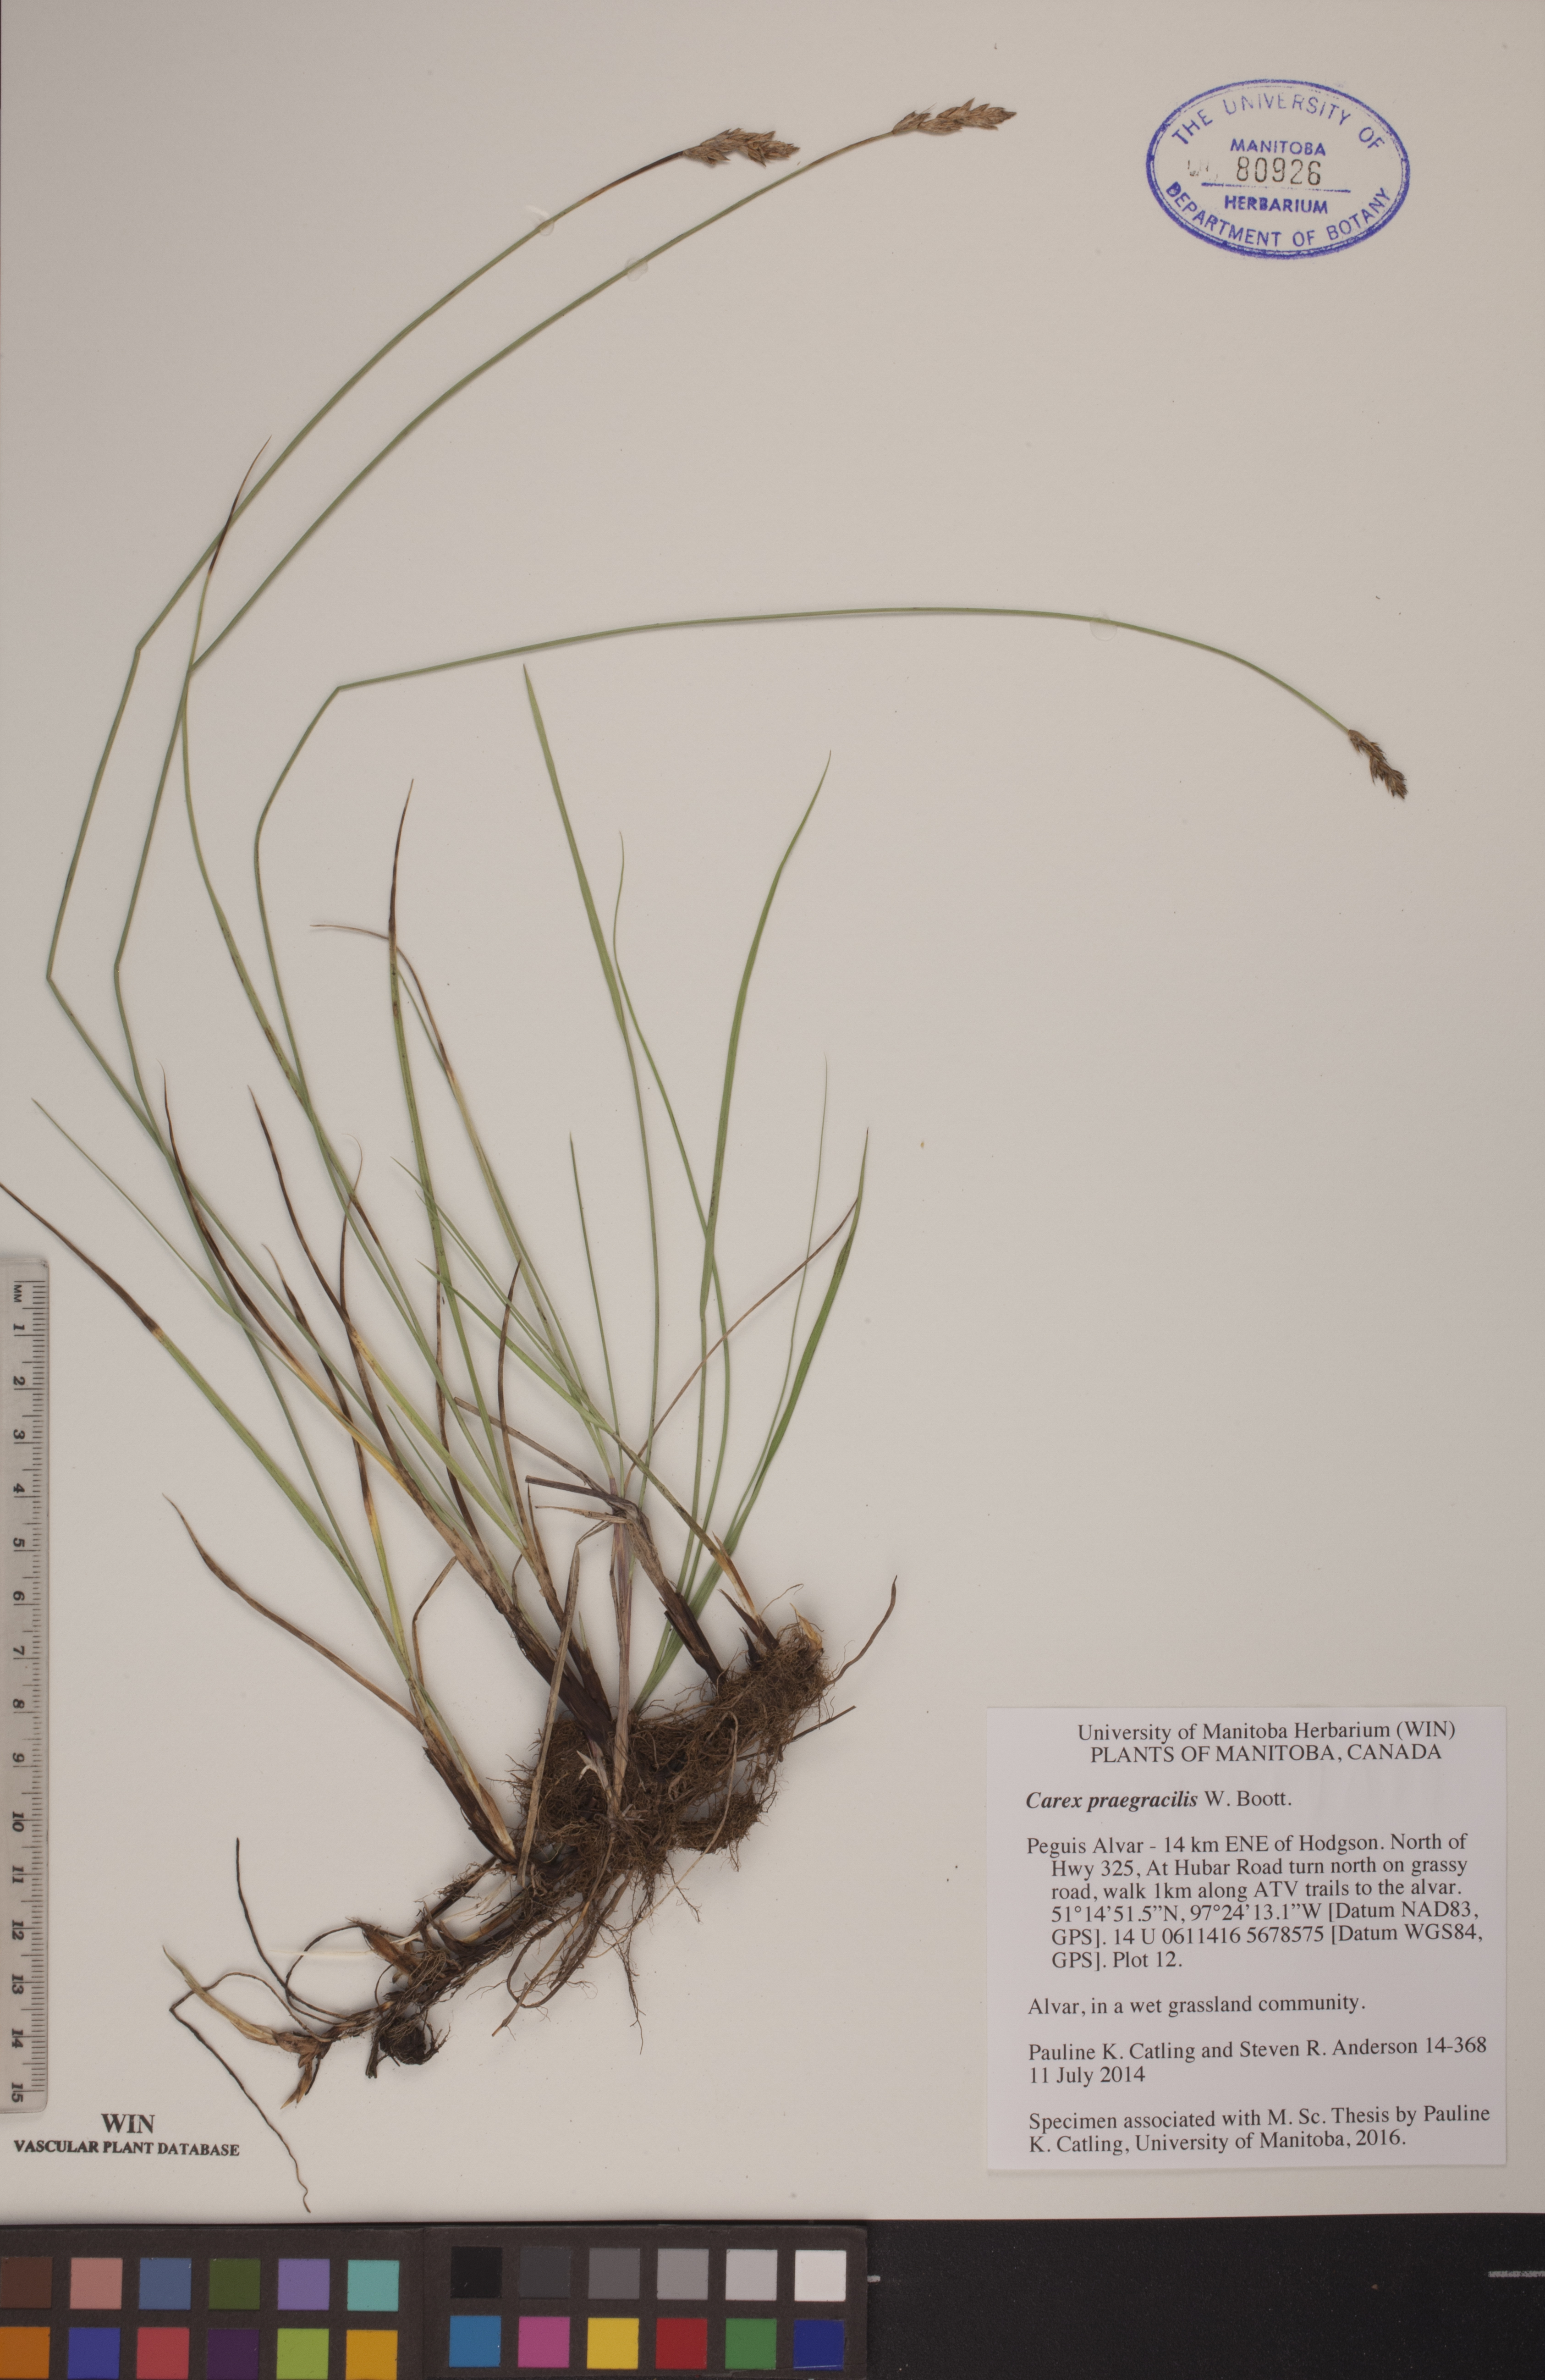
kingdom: Plantae
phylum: Tracheophyta
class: Liliopsida
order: Poales
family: Cyperaceae
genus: Carex
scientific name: Carex praegracilis
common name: Black creeper sedge
